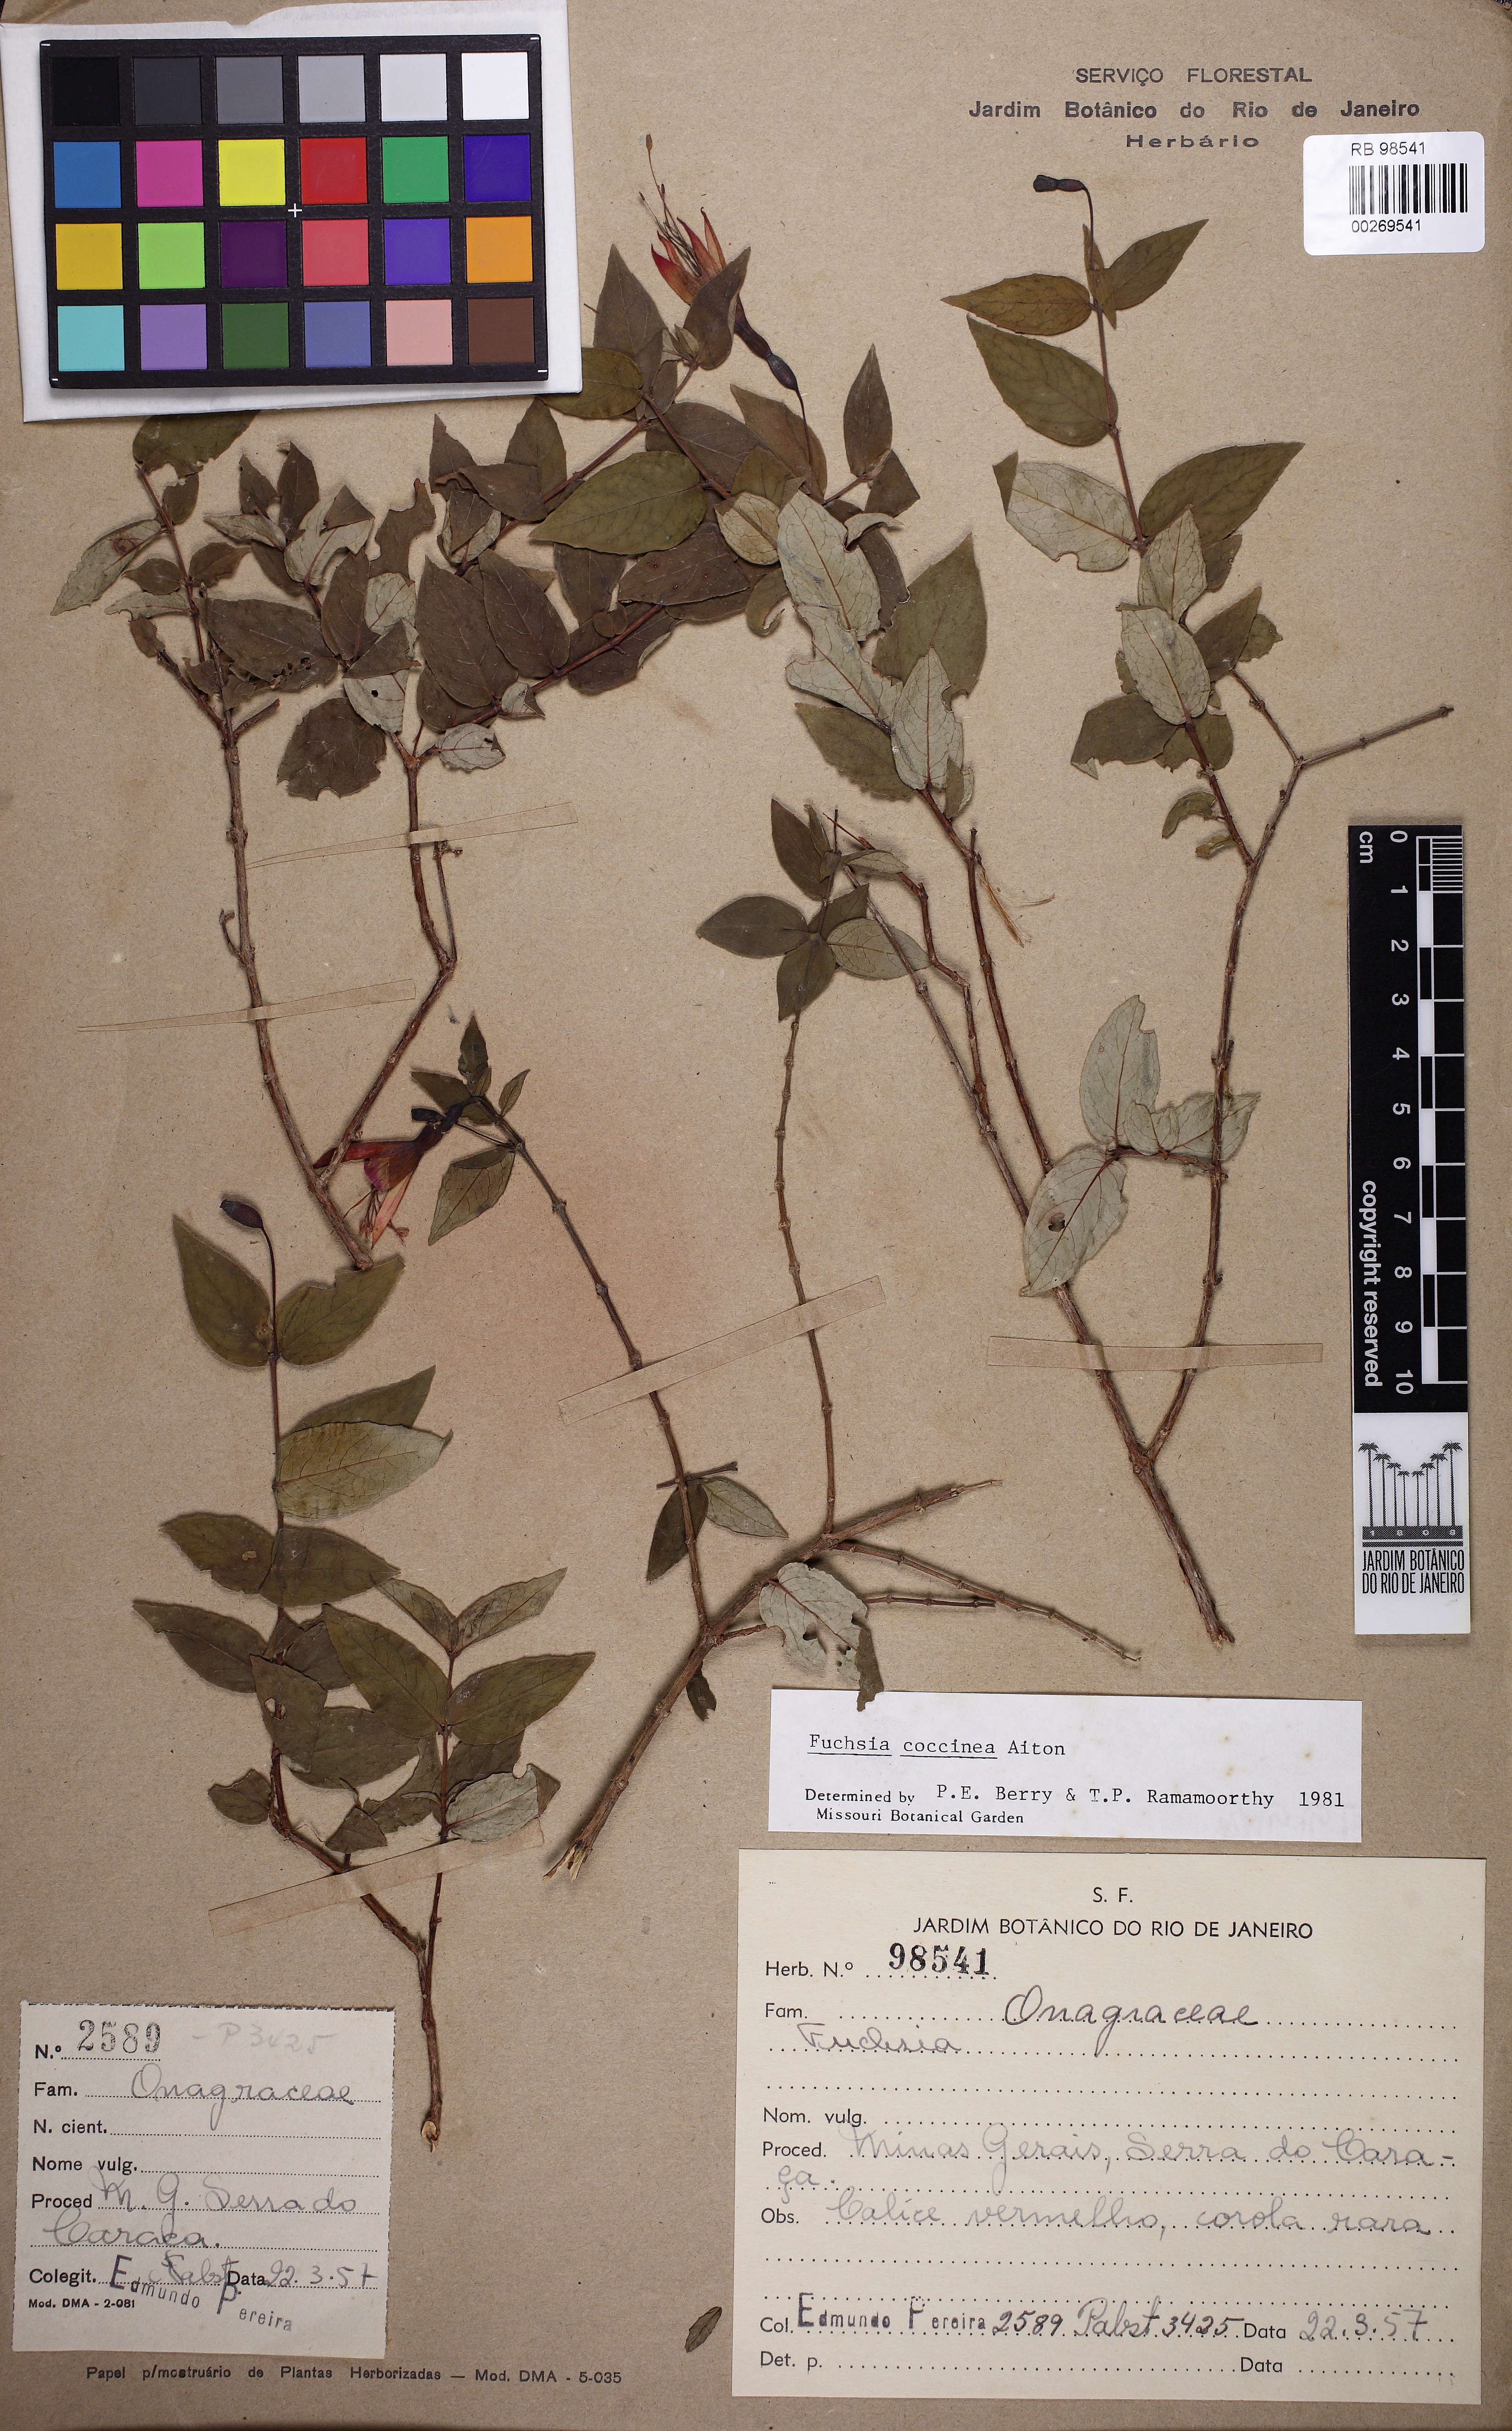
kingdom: Plantae
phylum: Tracheophyta
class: Magnoliopsida
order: Myrtales
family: Onagraceae
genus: Fuchsia
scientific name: Fuchsia coccinea
